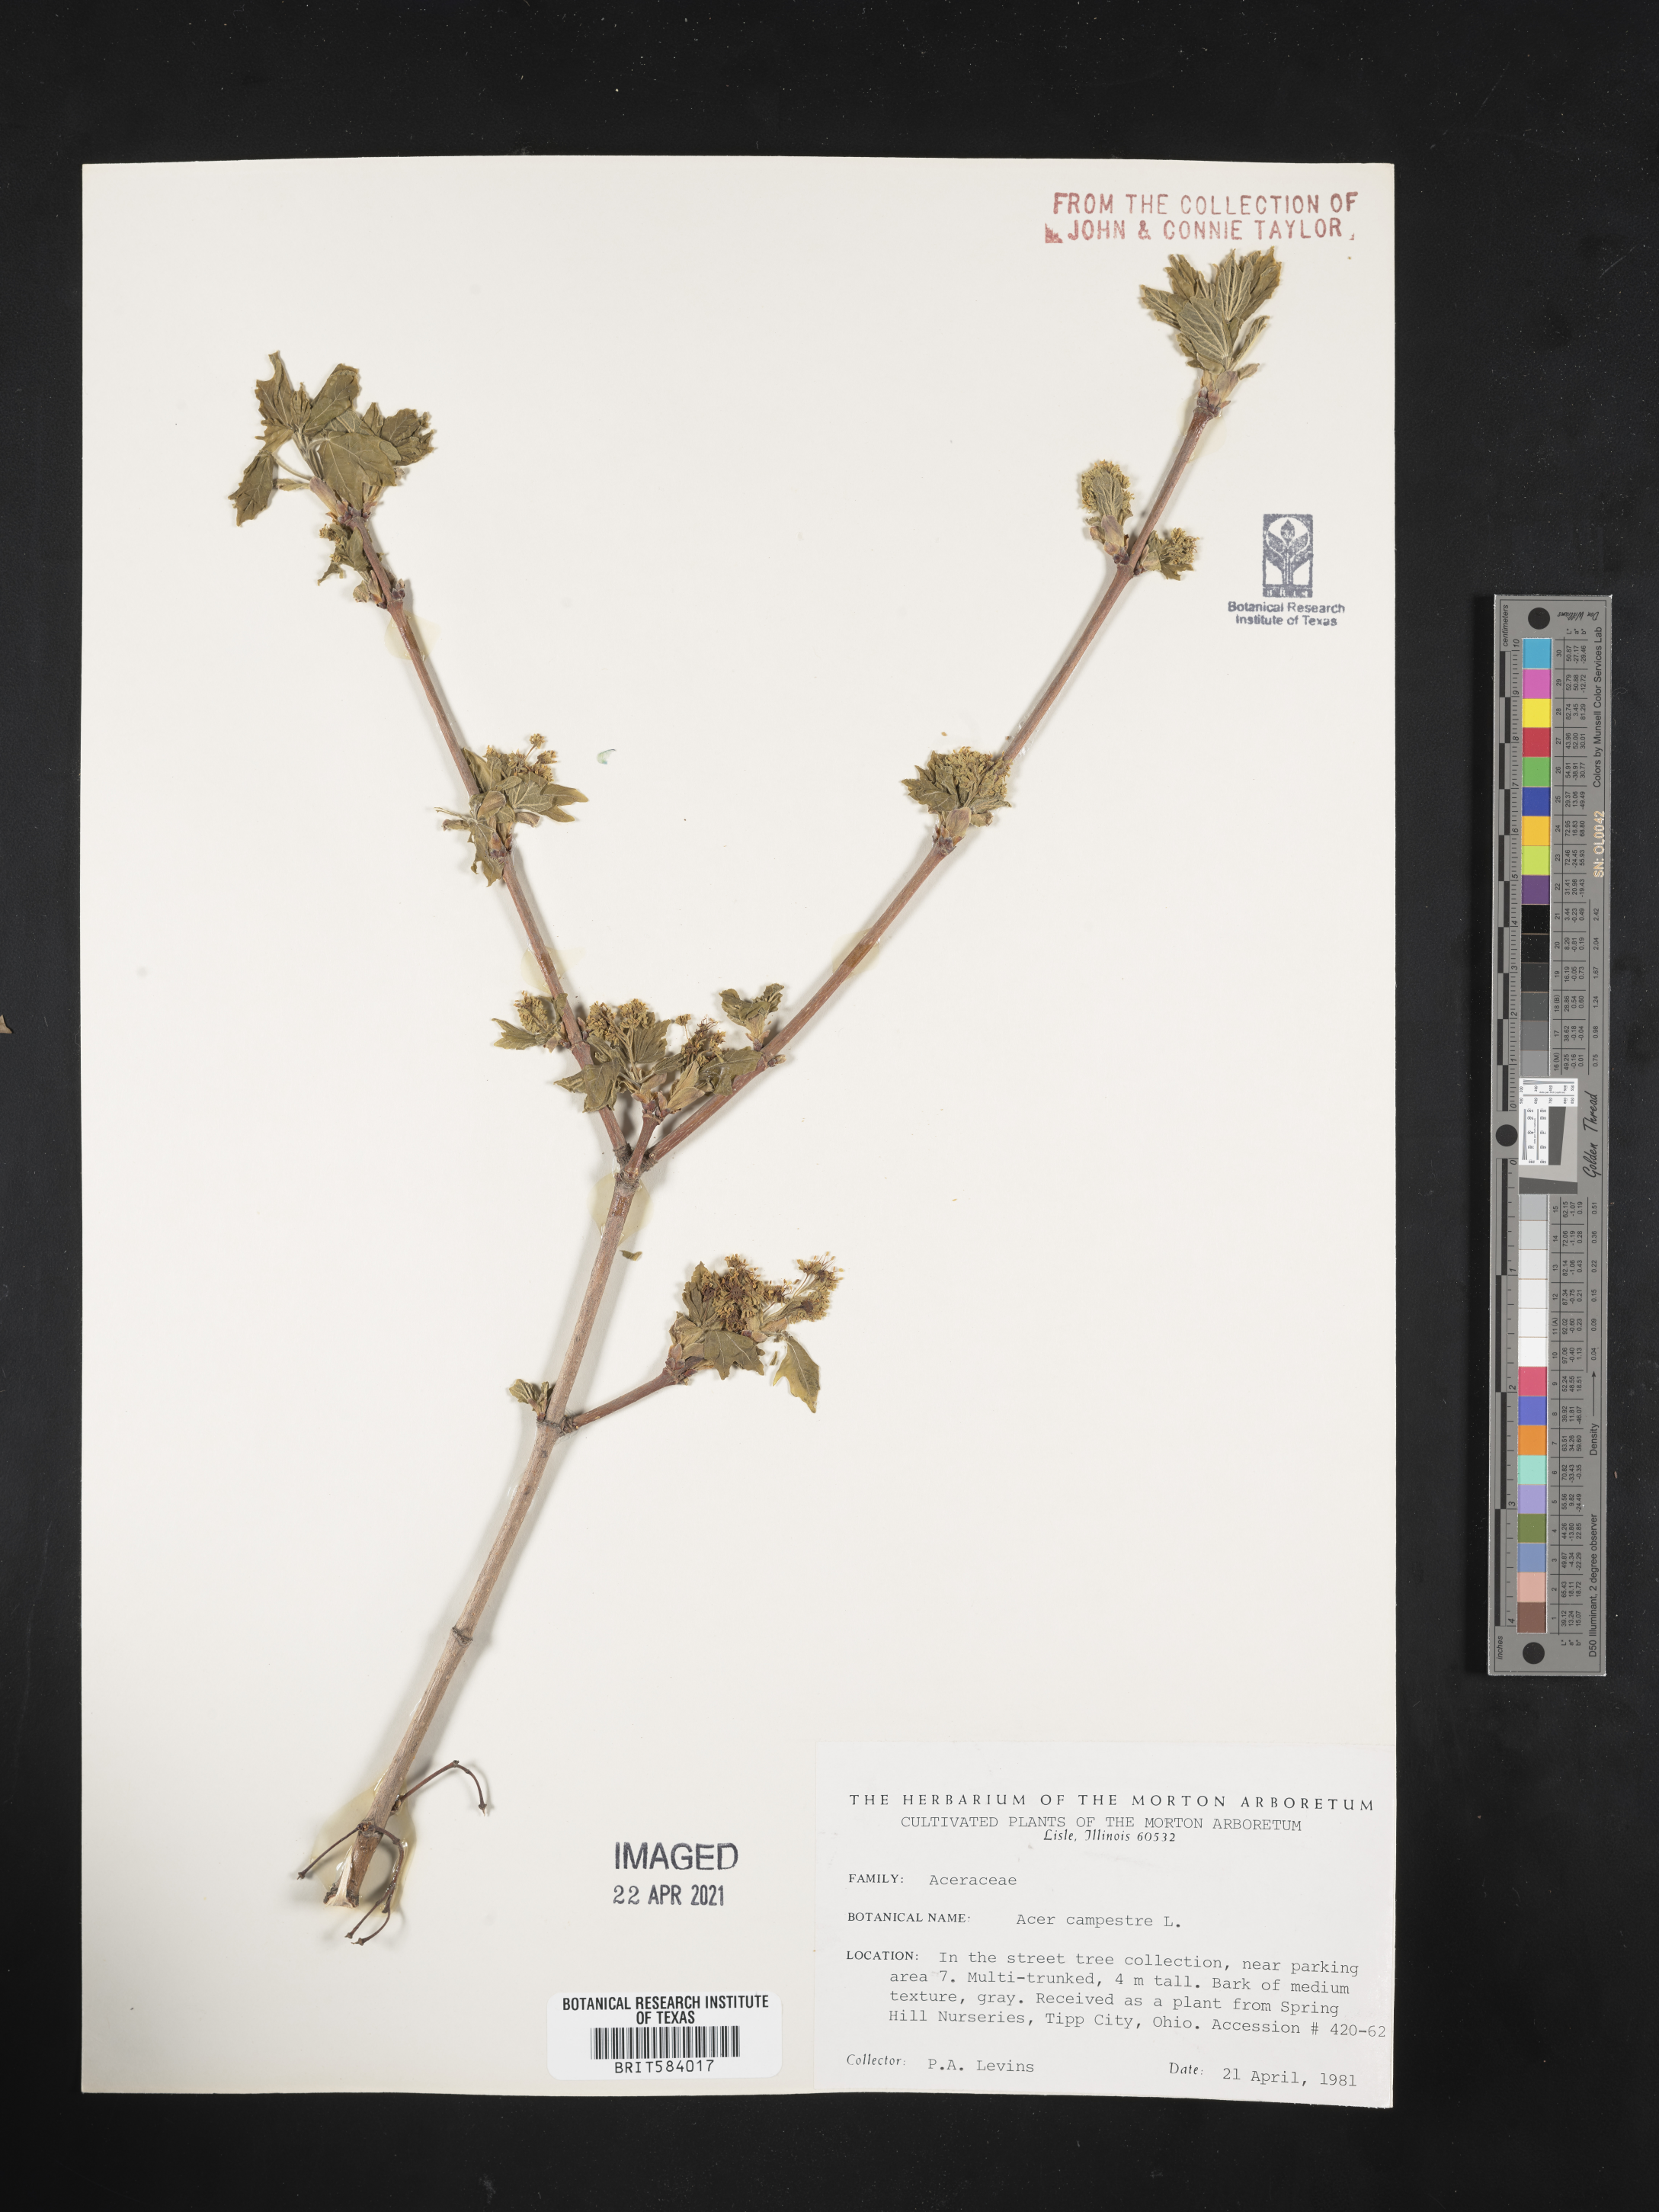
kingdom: Plantae
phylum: Tracheophyta
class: Magnoliopsida
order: Sapindales
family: Sapindaceae
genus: Acer
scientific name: Acer campestre
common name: Field maple
